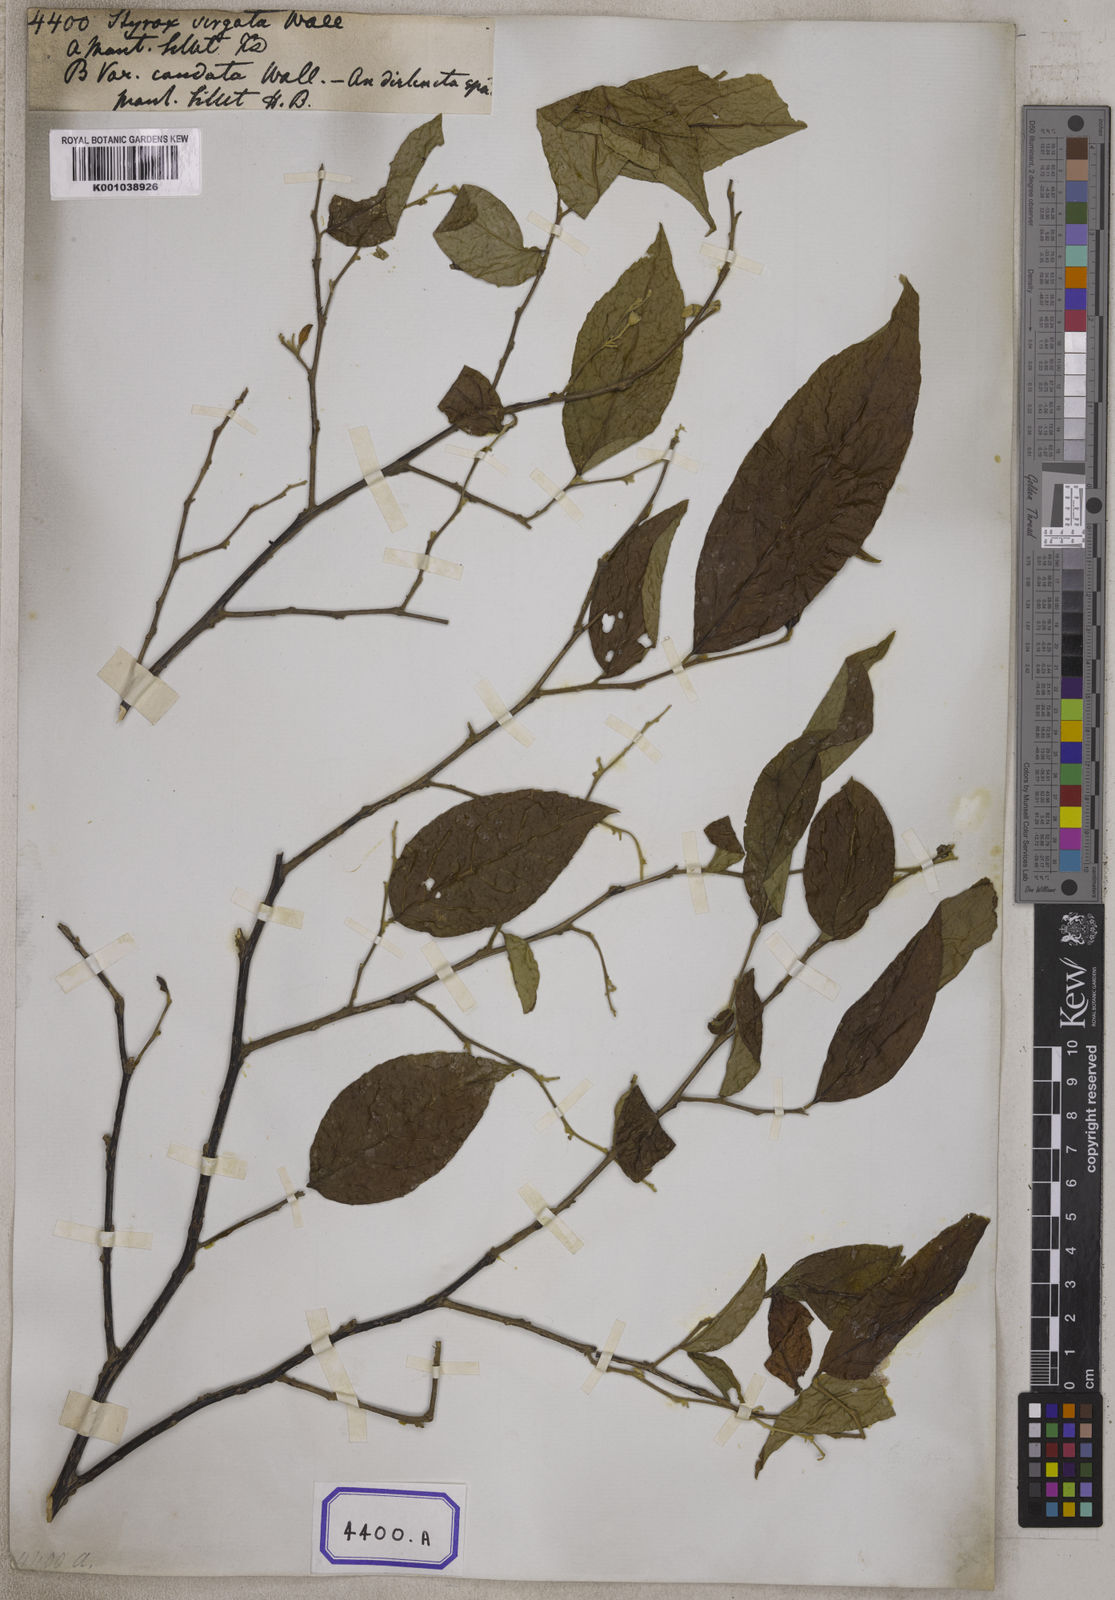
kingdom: Plantae
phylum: Tracheophyta
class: Magnoliopsida
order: Ericales
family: Styracaceae
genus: Styrax
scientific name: Styrax
